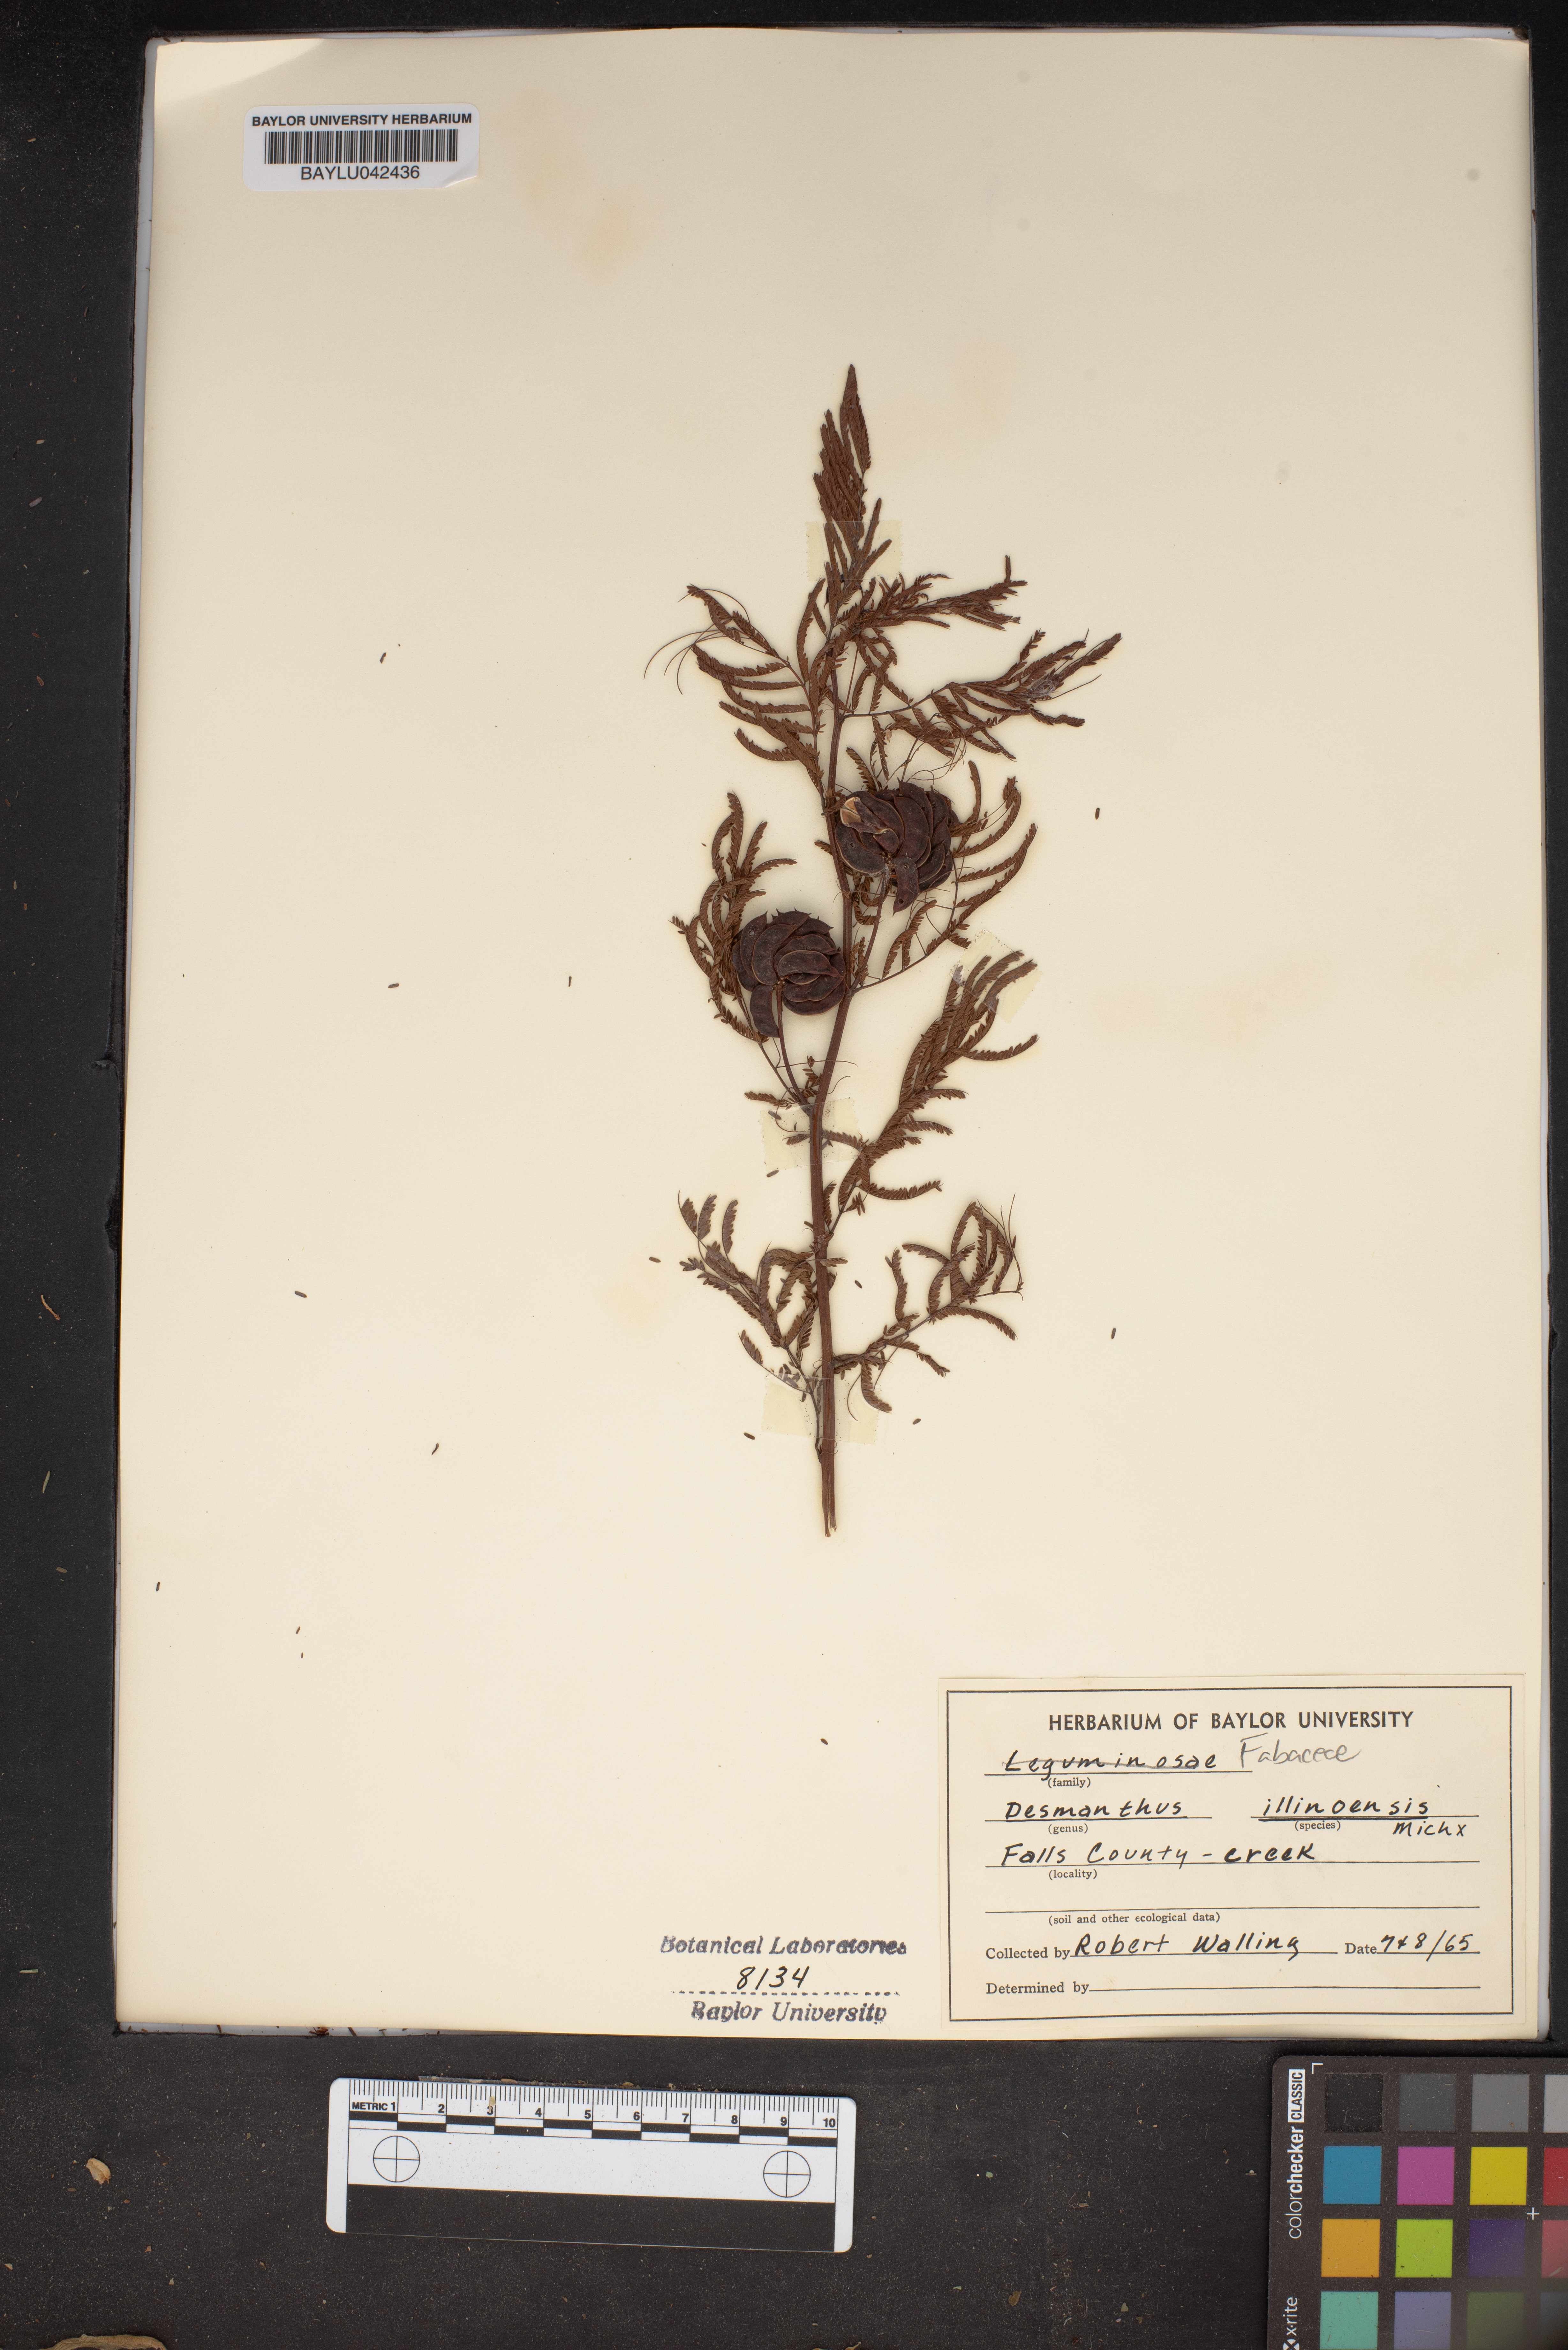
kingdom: Plantae
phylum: Tracheophyta
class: Magnoliopsida
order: Fabales
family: Fabaceae
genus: Desmanthus
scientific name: Desmanthus illinoensis
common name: Illinois bundle-flower
